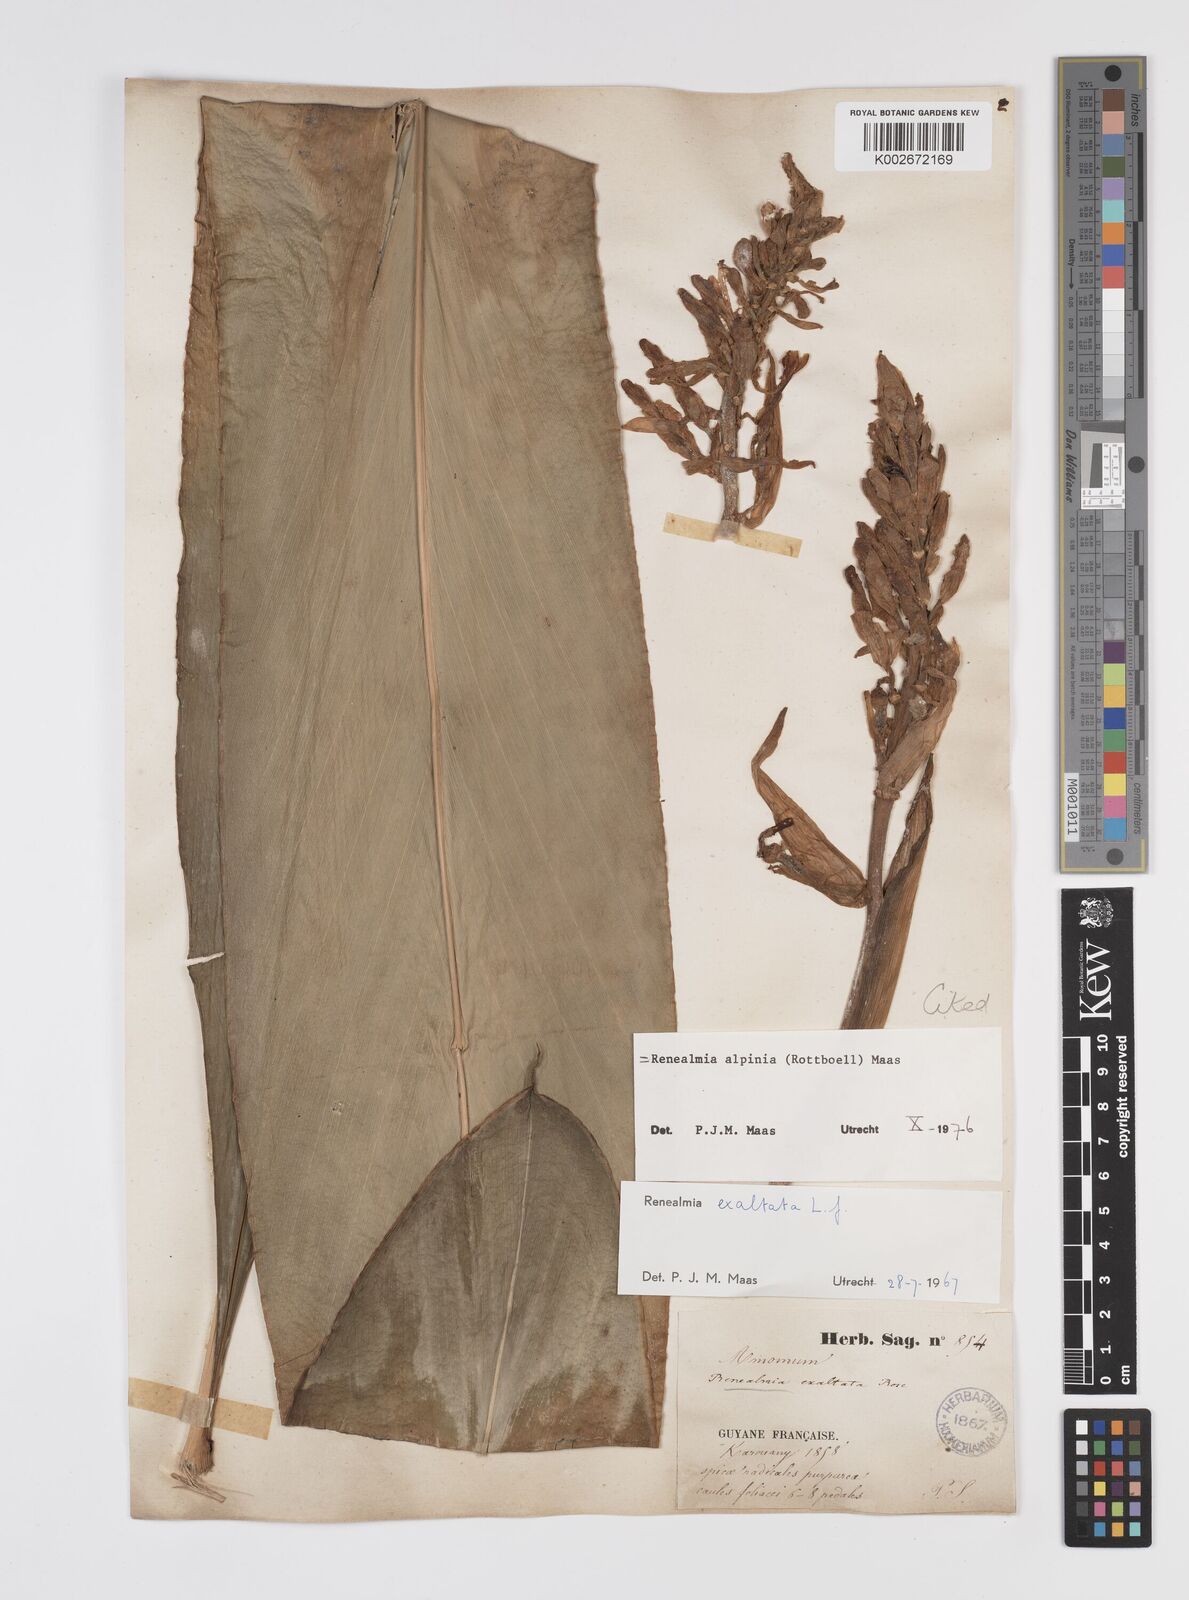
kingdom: Plantae
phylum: Tracheophyta
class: Liliopsida
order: Zingiberales
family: Zingiberaceae
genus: Renealmia
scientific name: Renealmia alpinia
